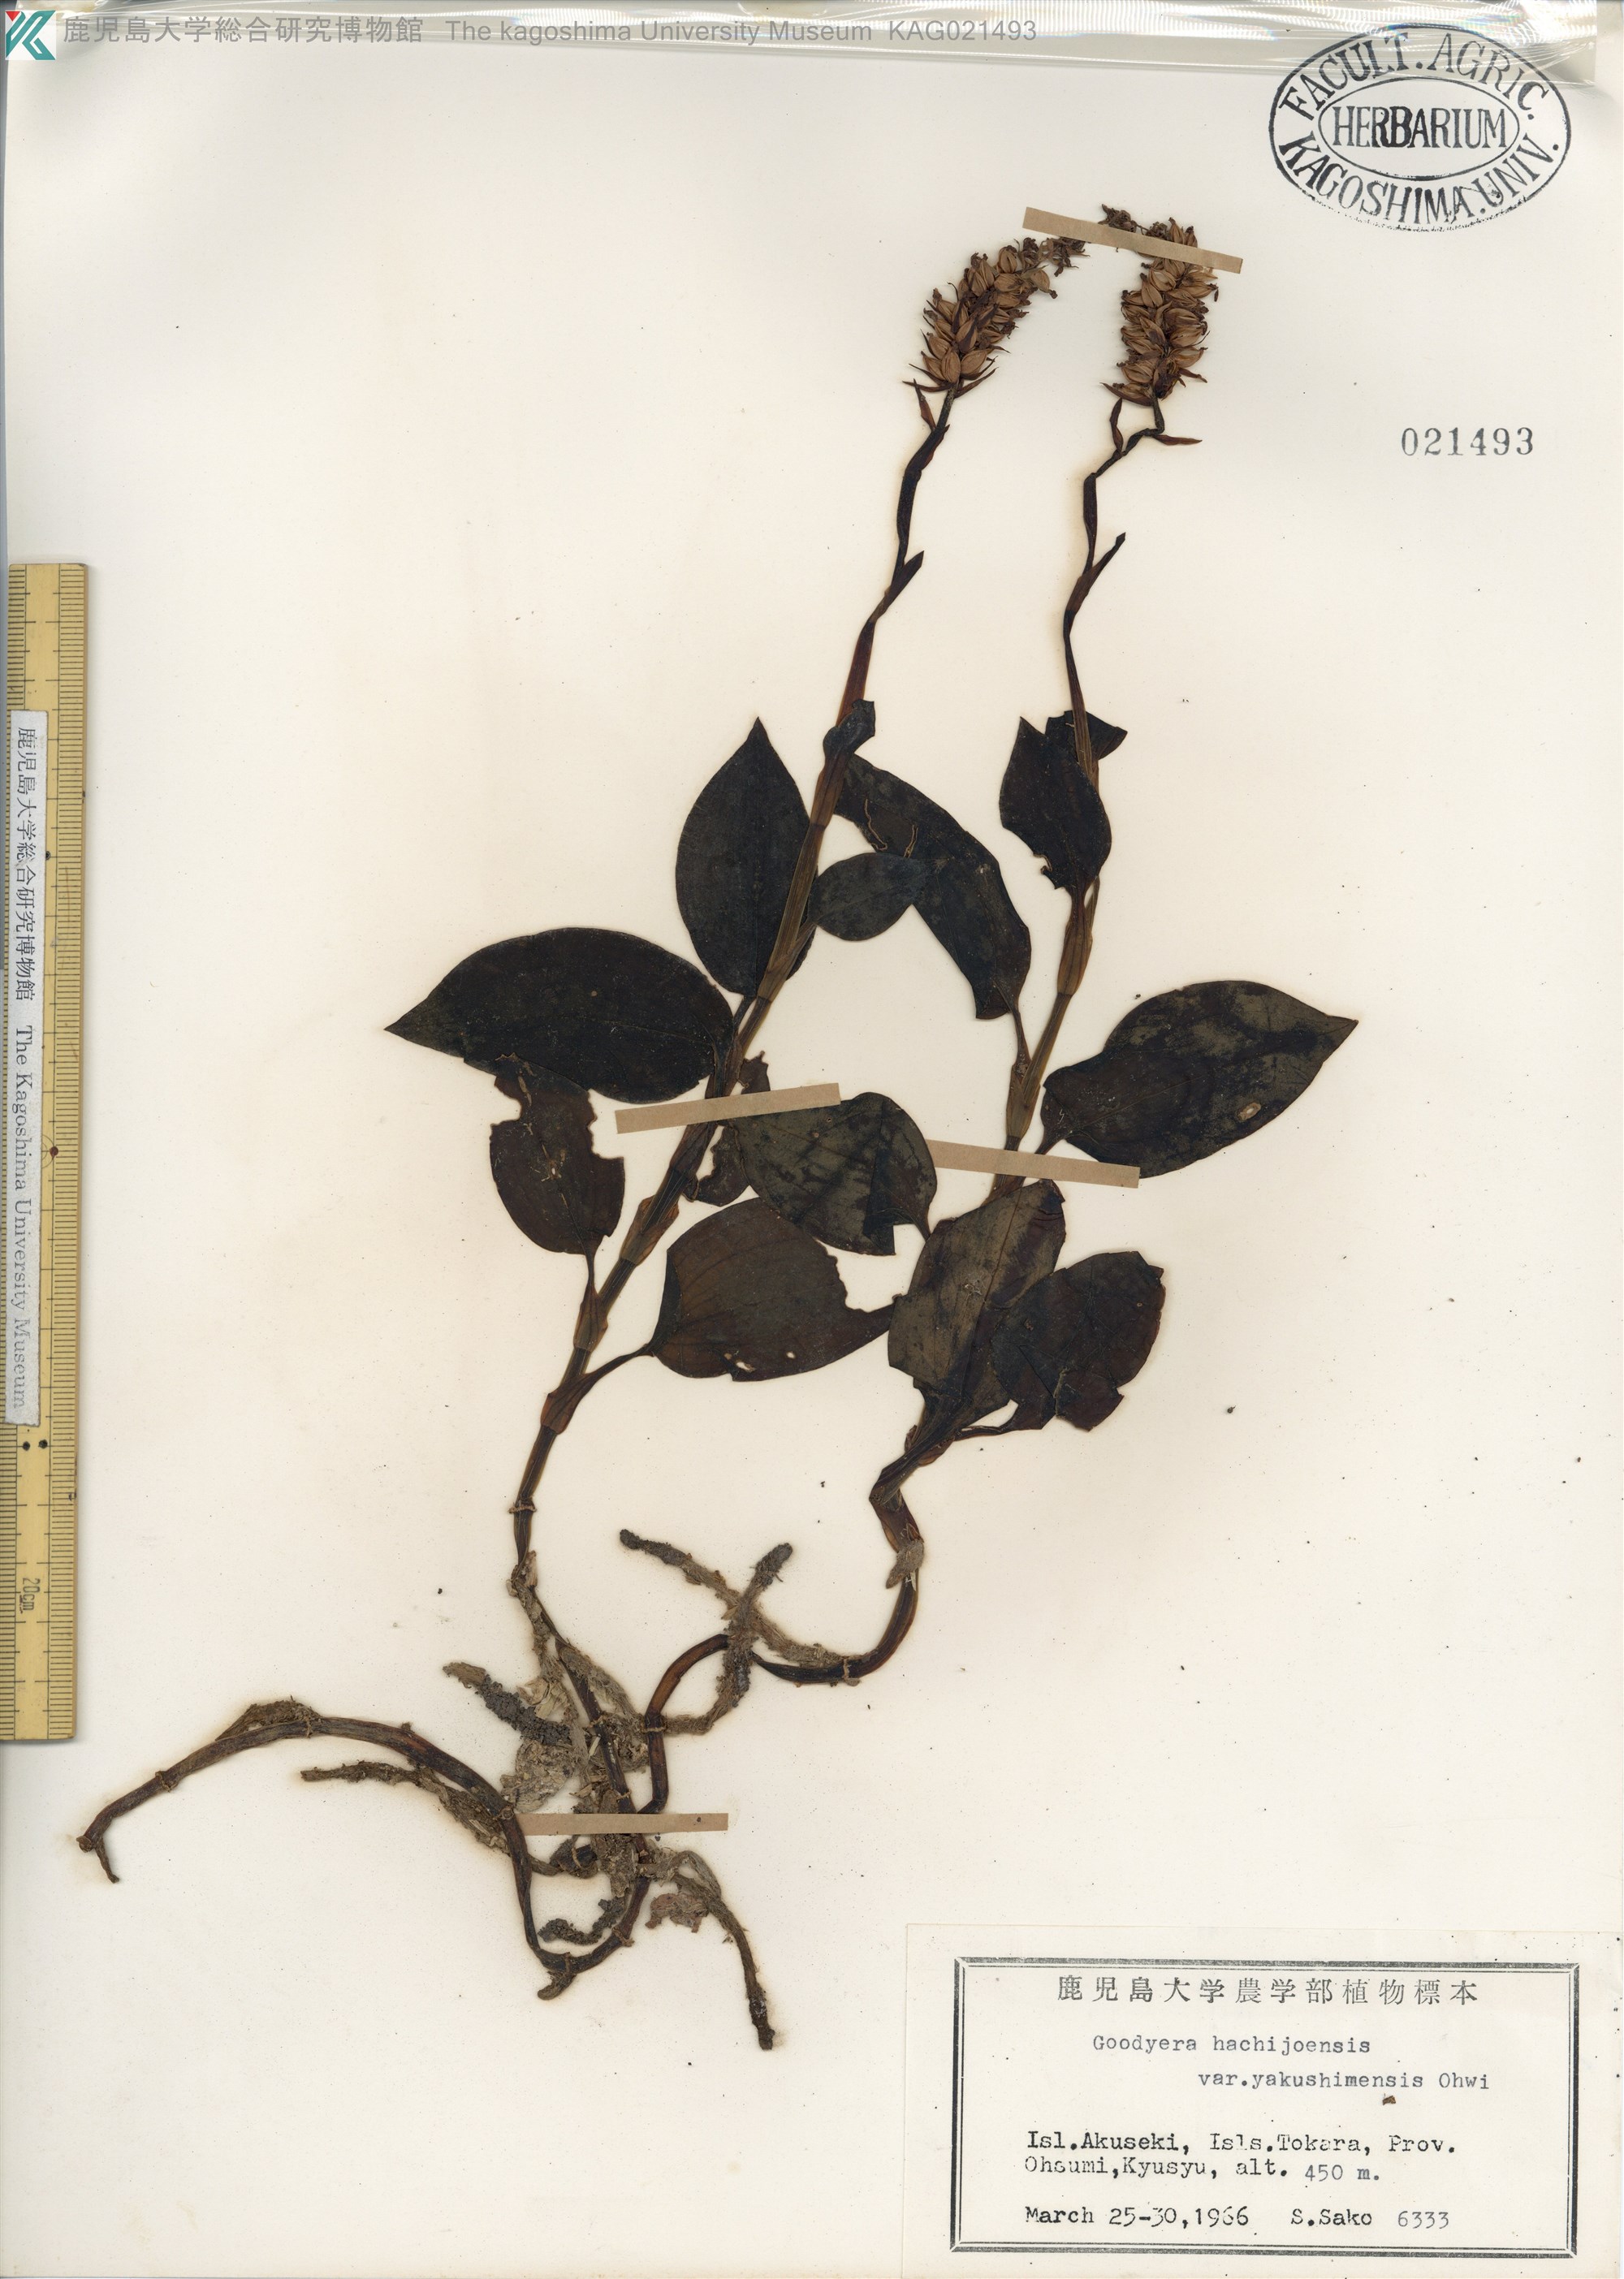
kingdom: Plantae
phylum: Tracheophyta
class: Liliopsida
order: Asparagales
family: Orchidaceae
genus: Goodyera
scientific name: Goodyera hachijoensis
